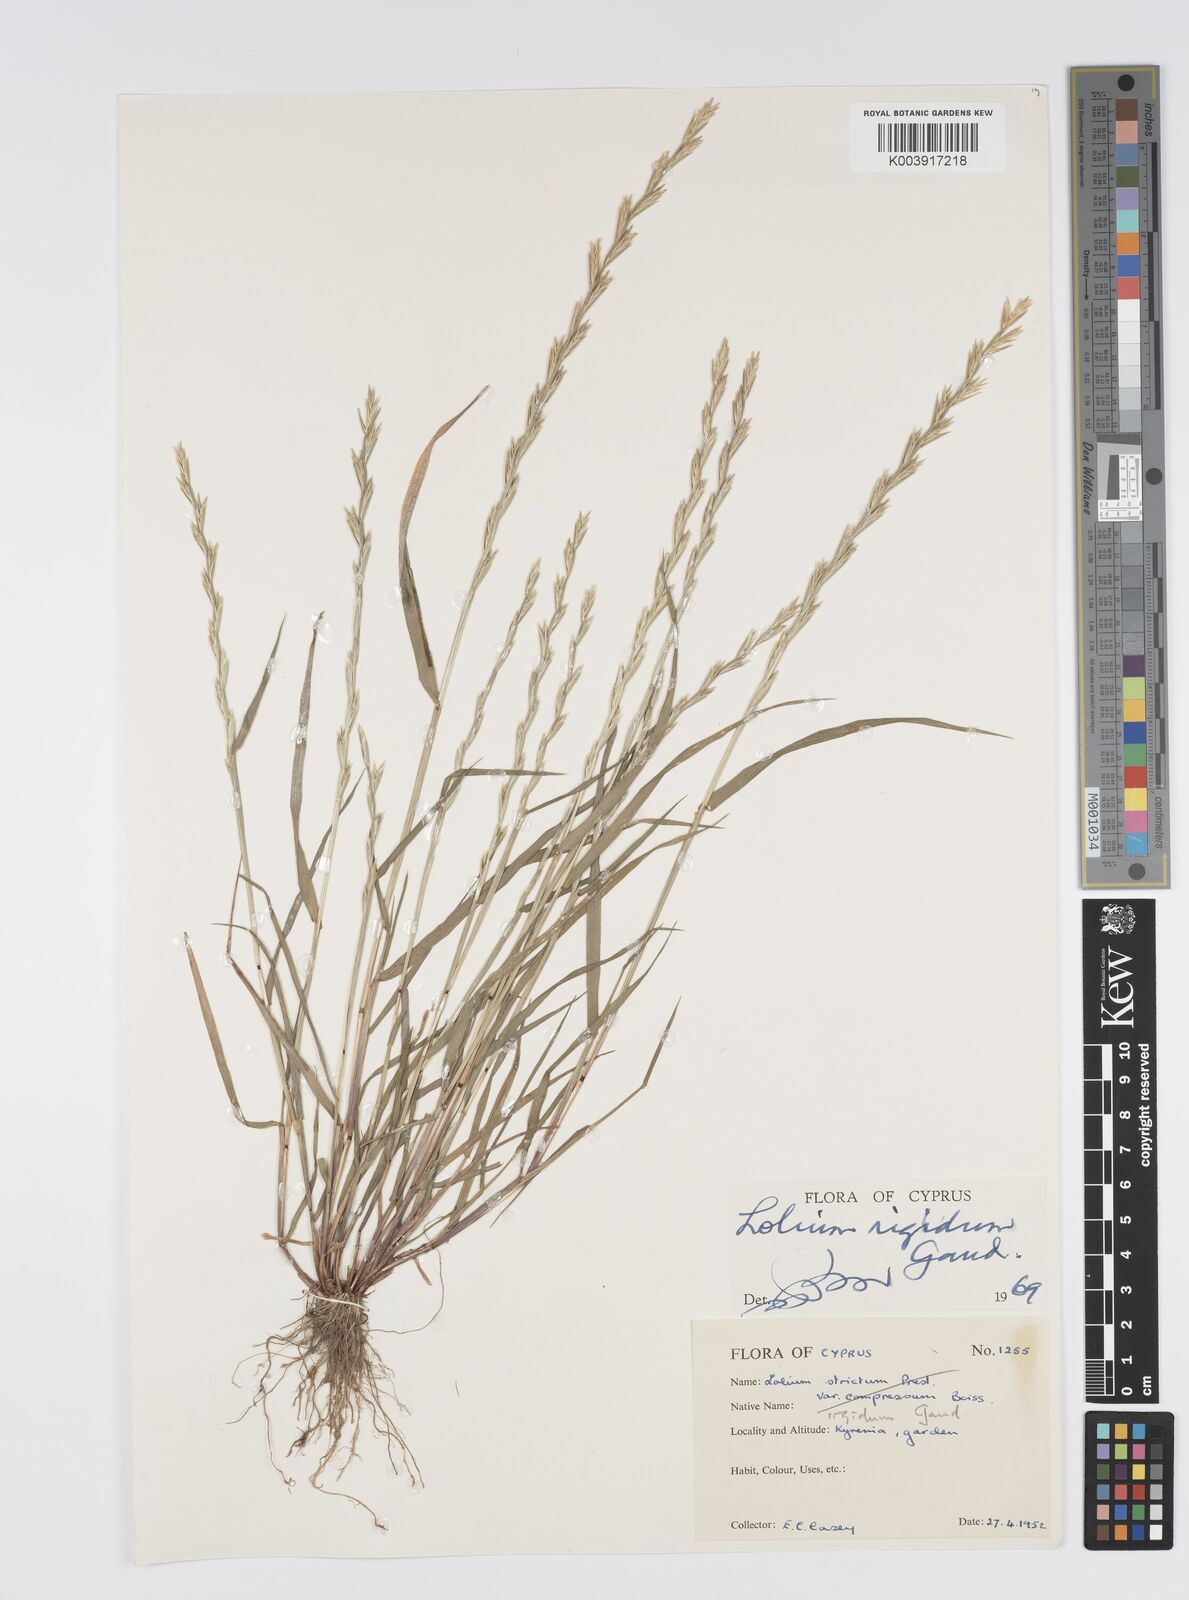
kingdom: Plantae
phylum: Tracheophyta
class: Liliopsida
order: Poales
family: Poaceae
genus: Lolium
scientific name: Lolium rigidum
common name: Wimmera ryegrass
